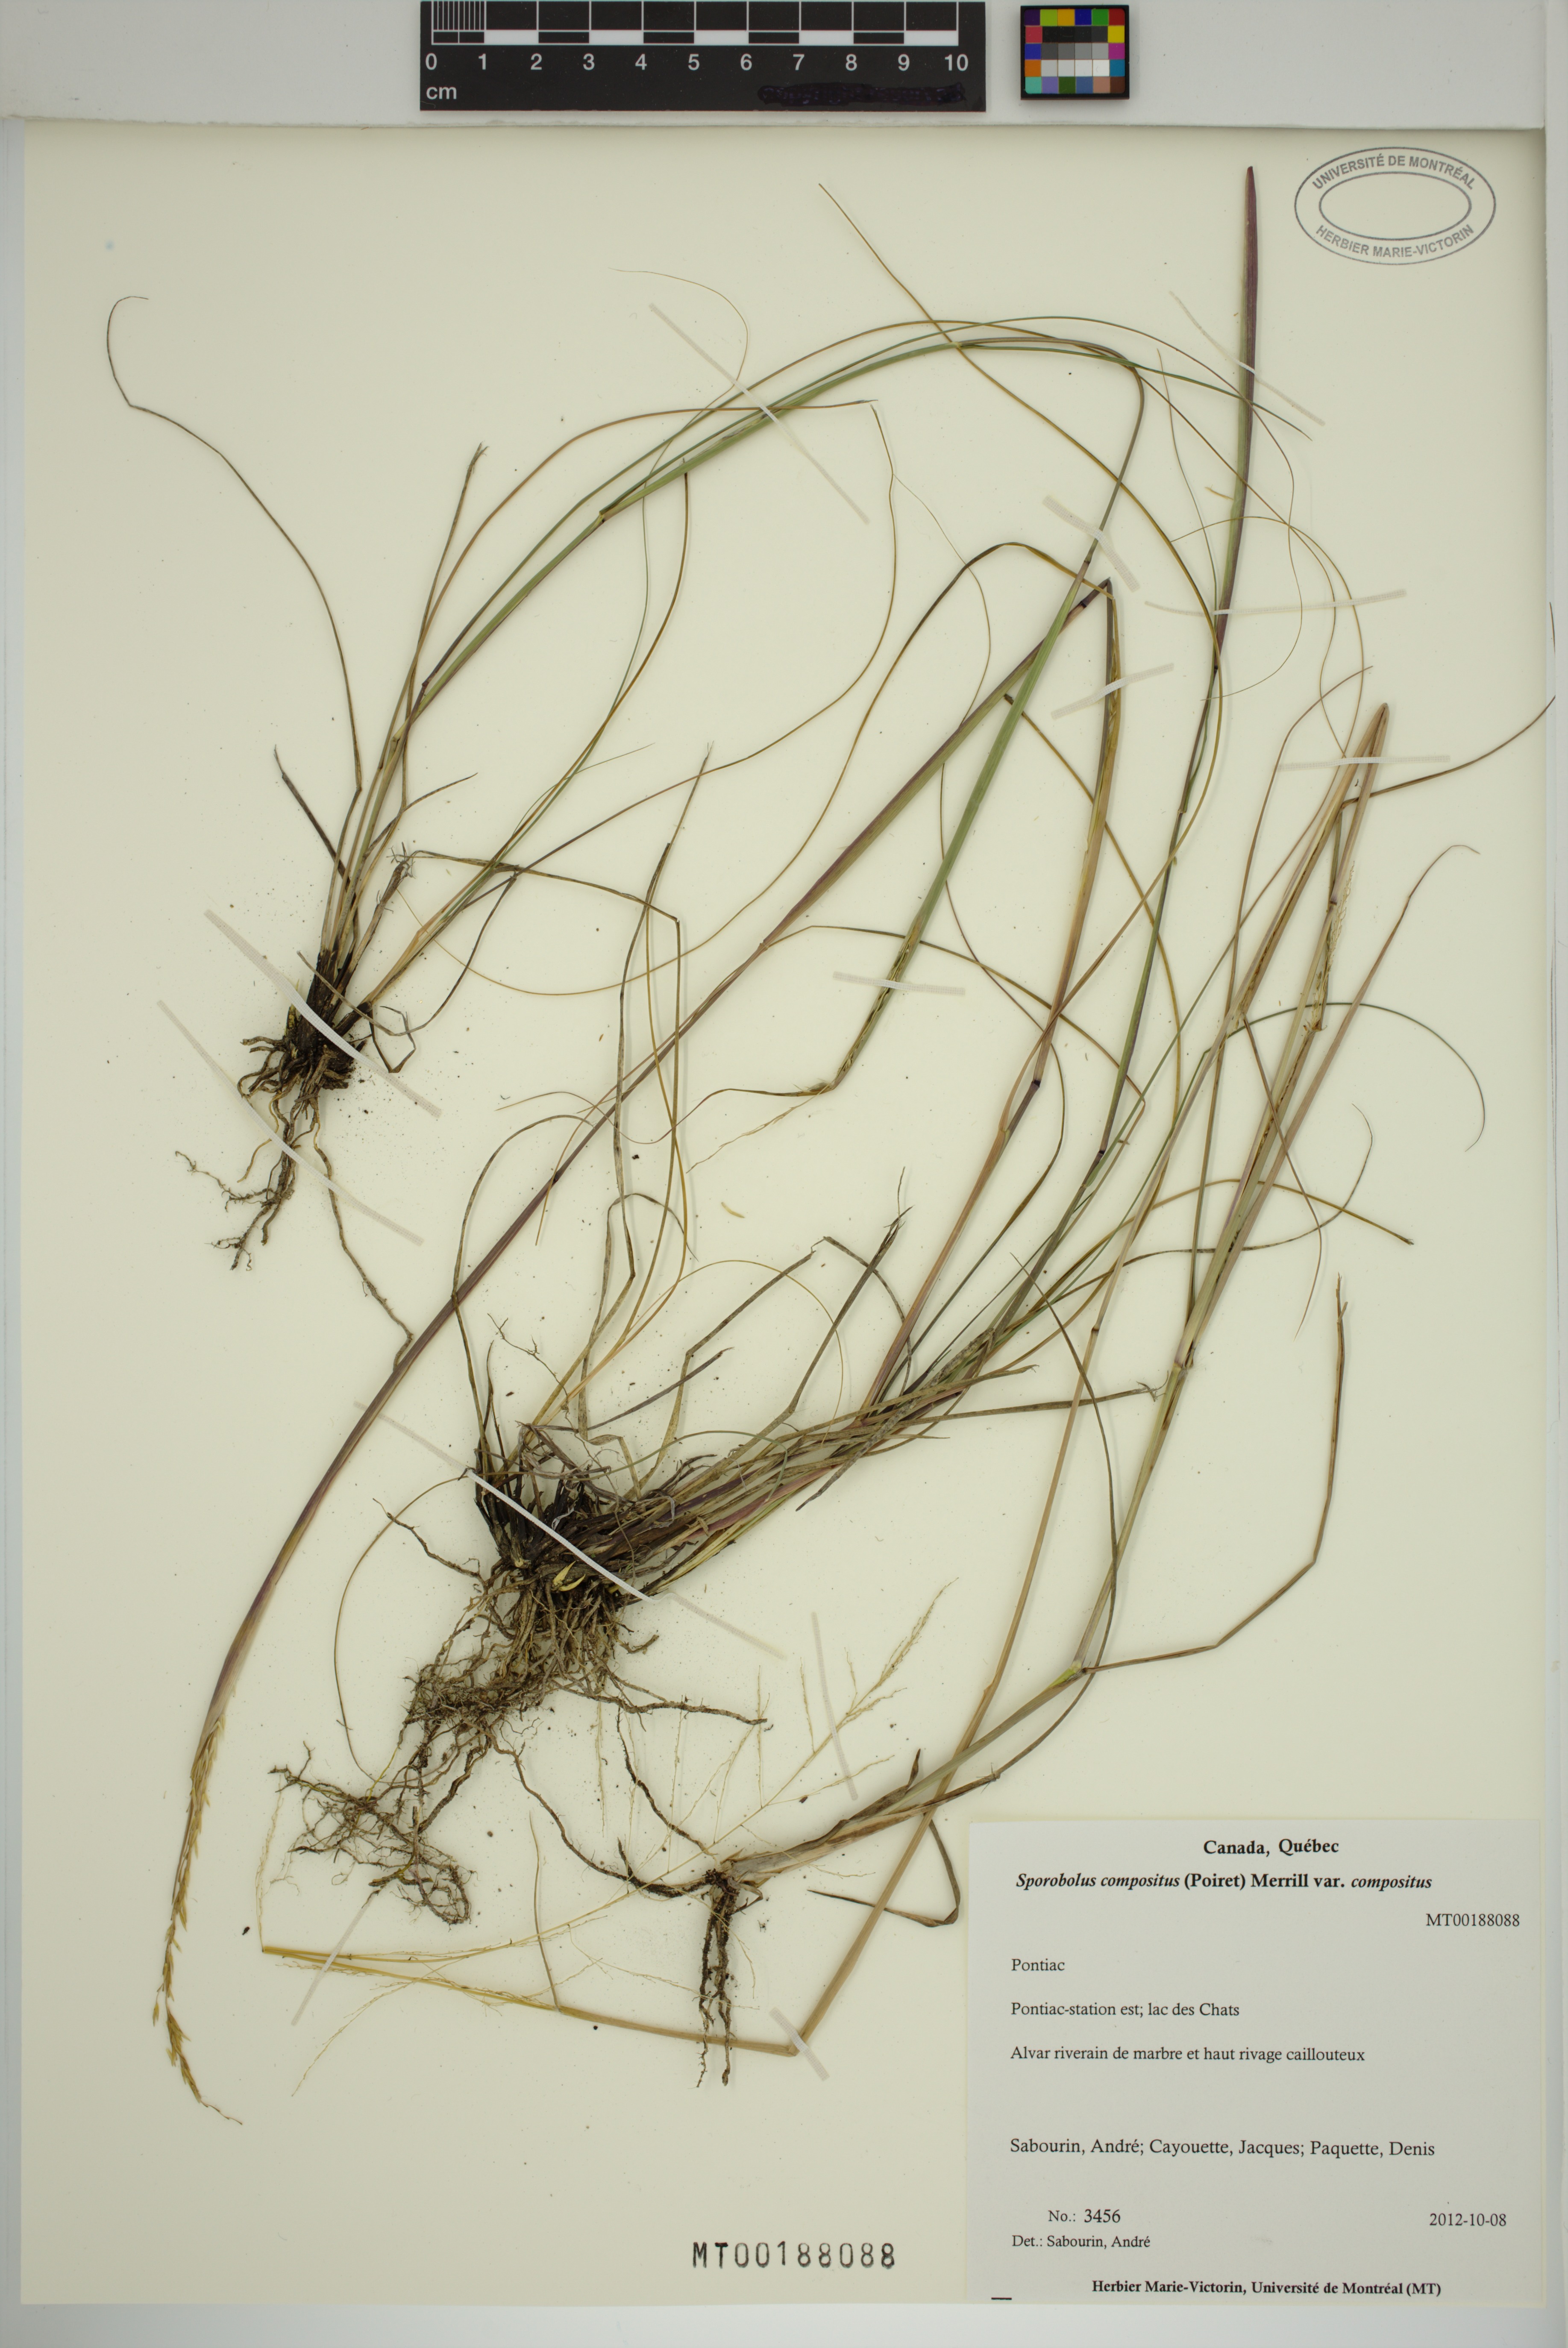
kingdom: Plantae
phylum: Tracheophyta
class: Liliopsida
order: Poales
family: Poaceae
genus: Sporobolus
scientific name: Sporobolus compositus
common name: Rough dropseed
